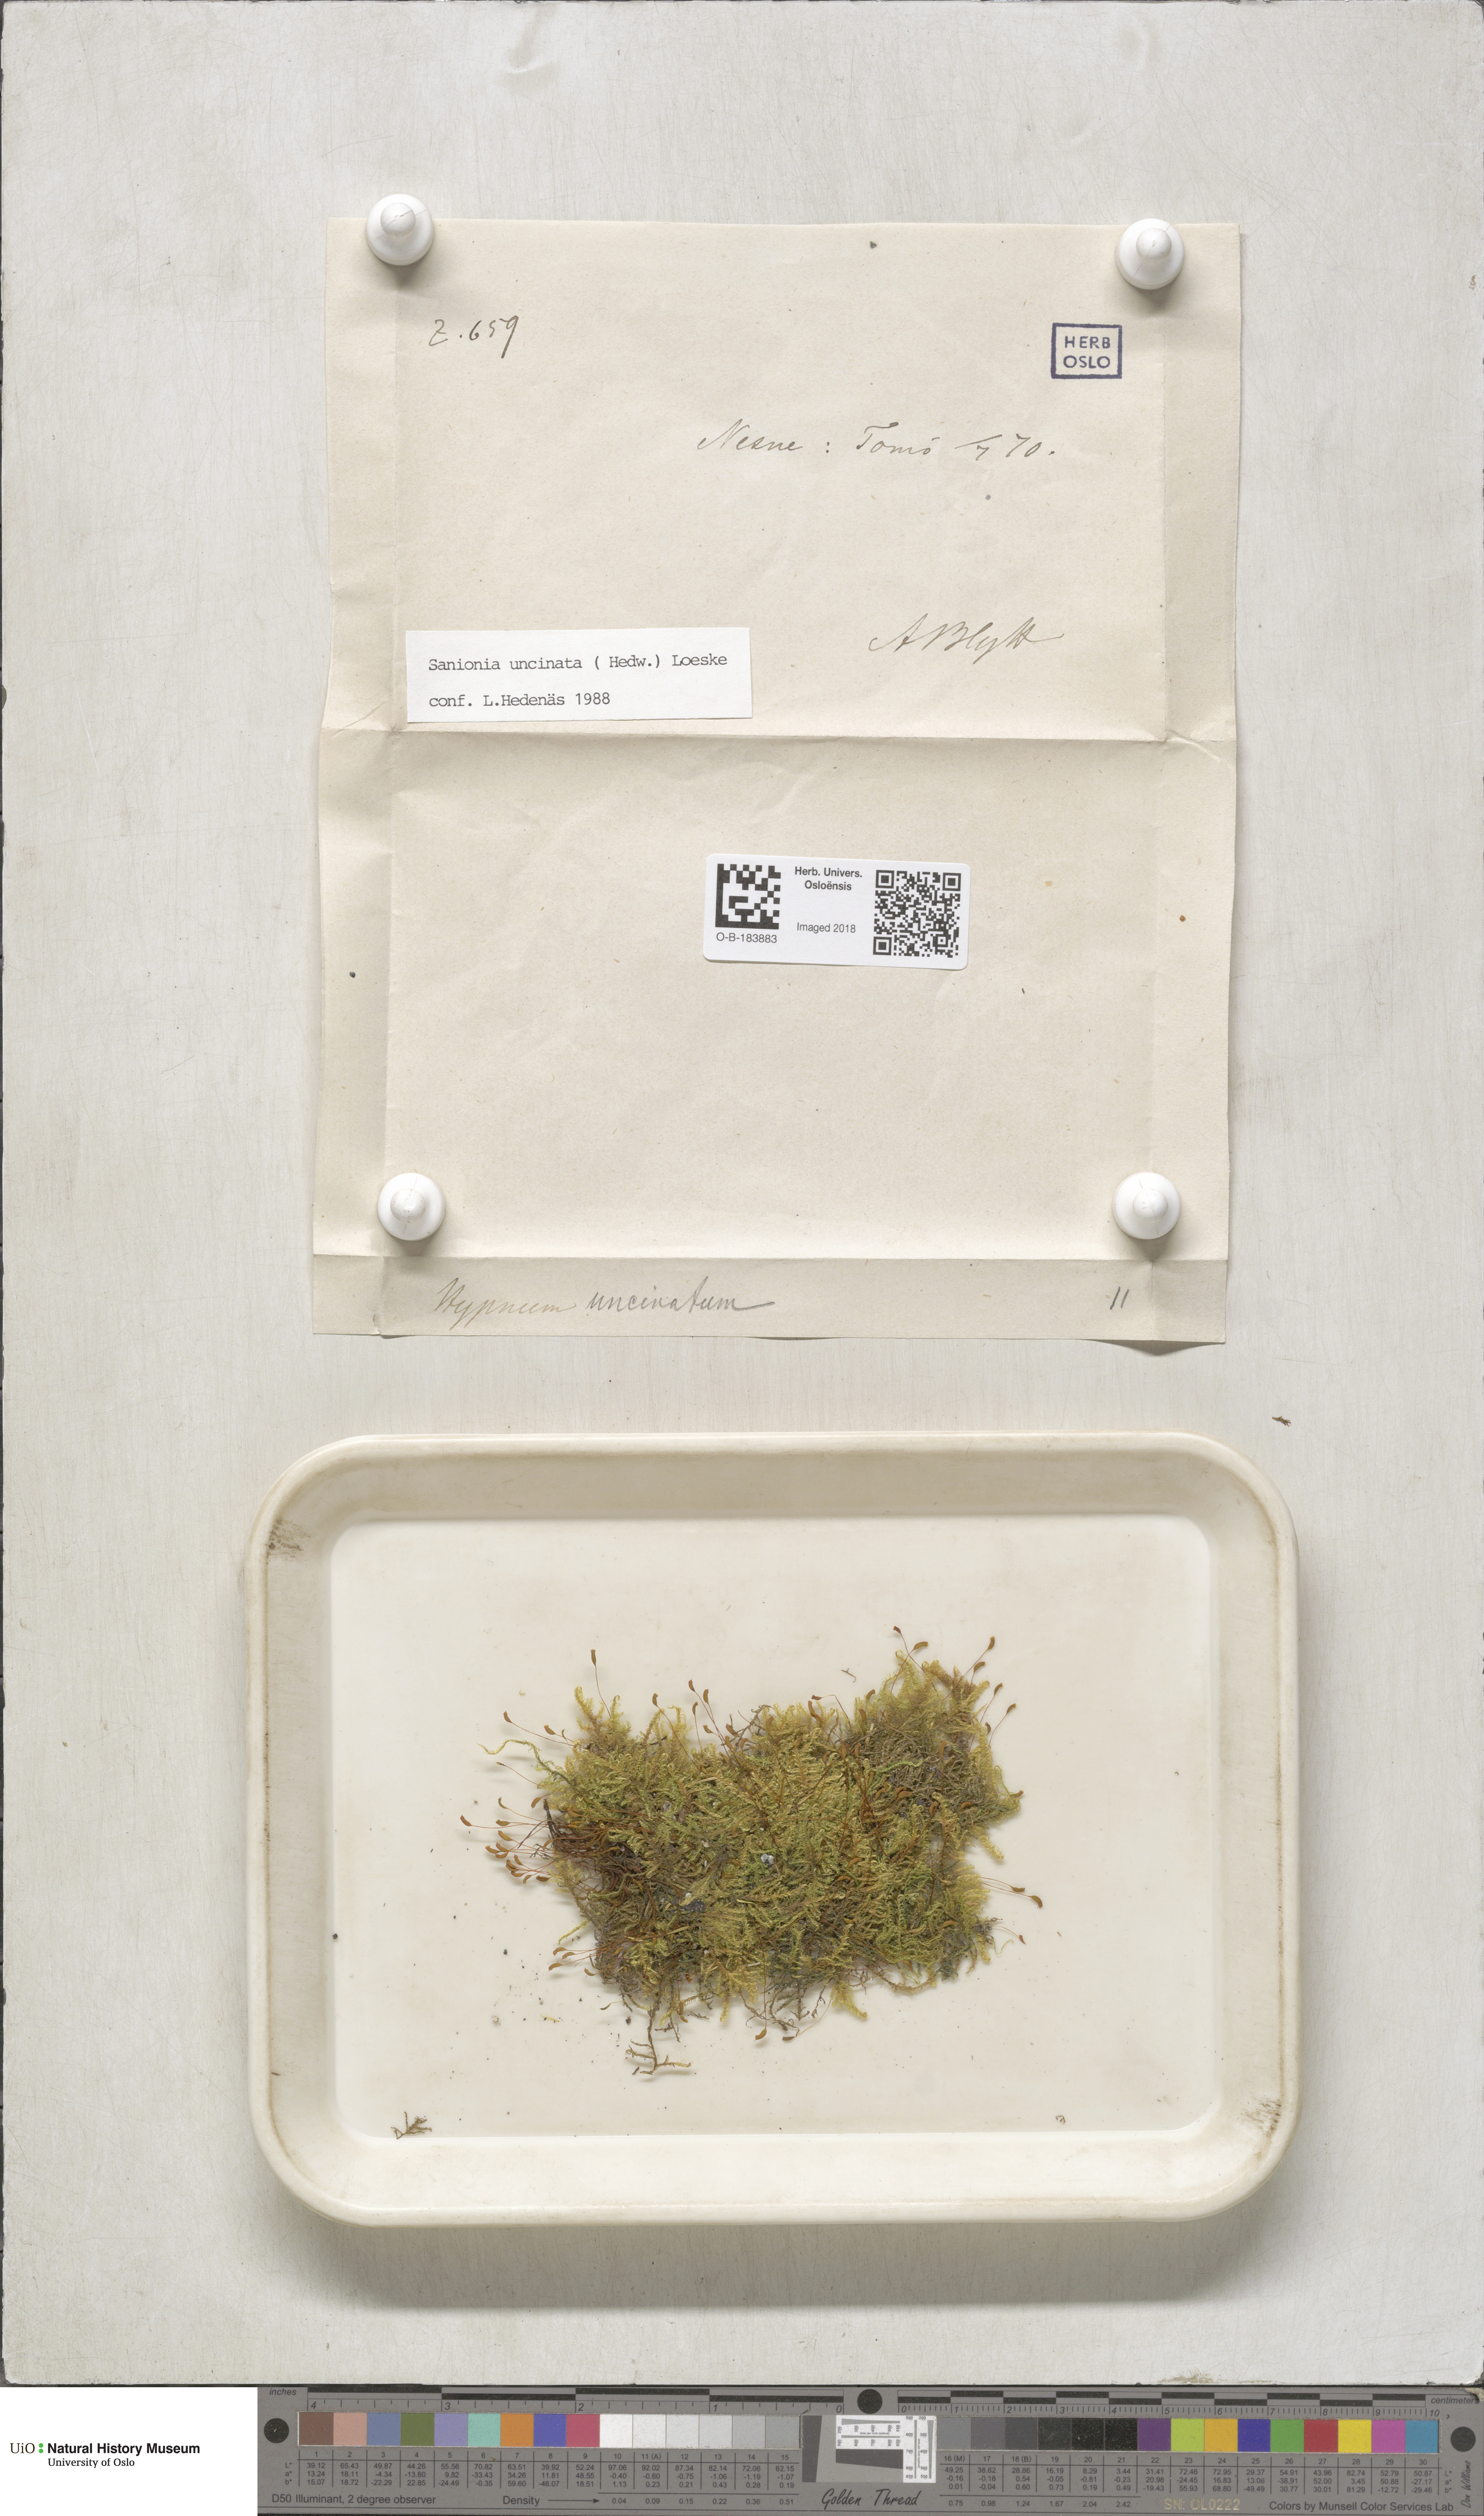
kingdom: Plantae
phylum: Bryophyta
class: Bryopsida
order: Hypnales
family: Scorpidiaceae
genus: Sanionia
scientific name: Sanionia uncinata
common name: Sickle moss
